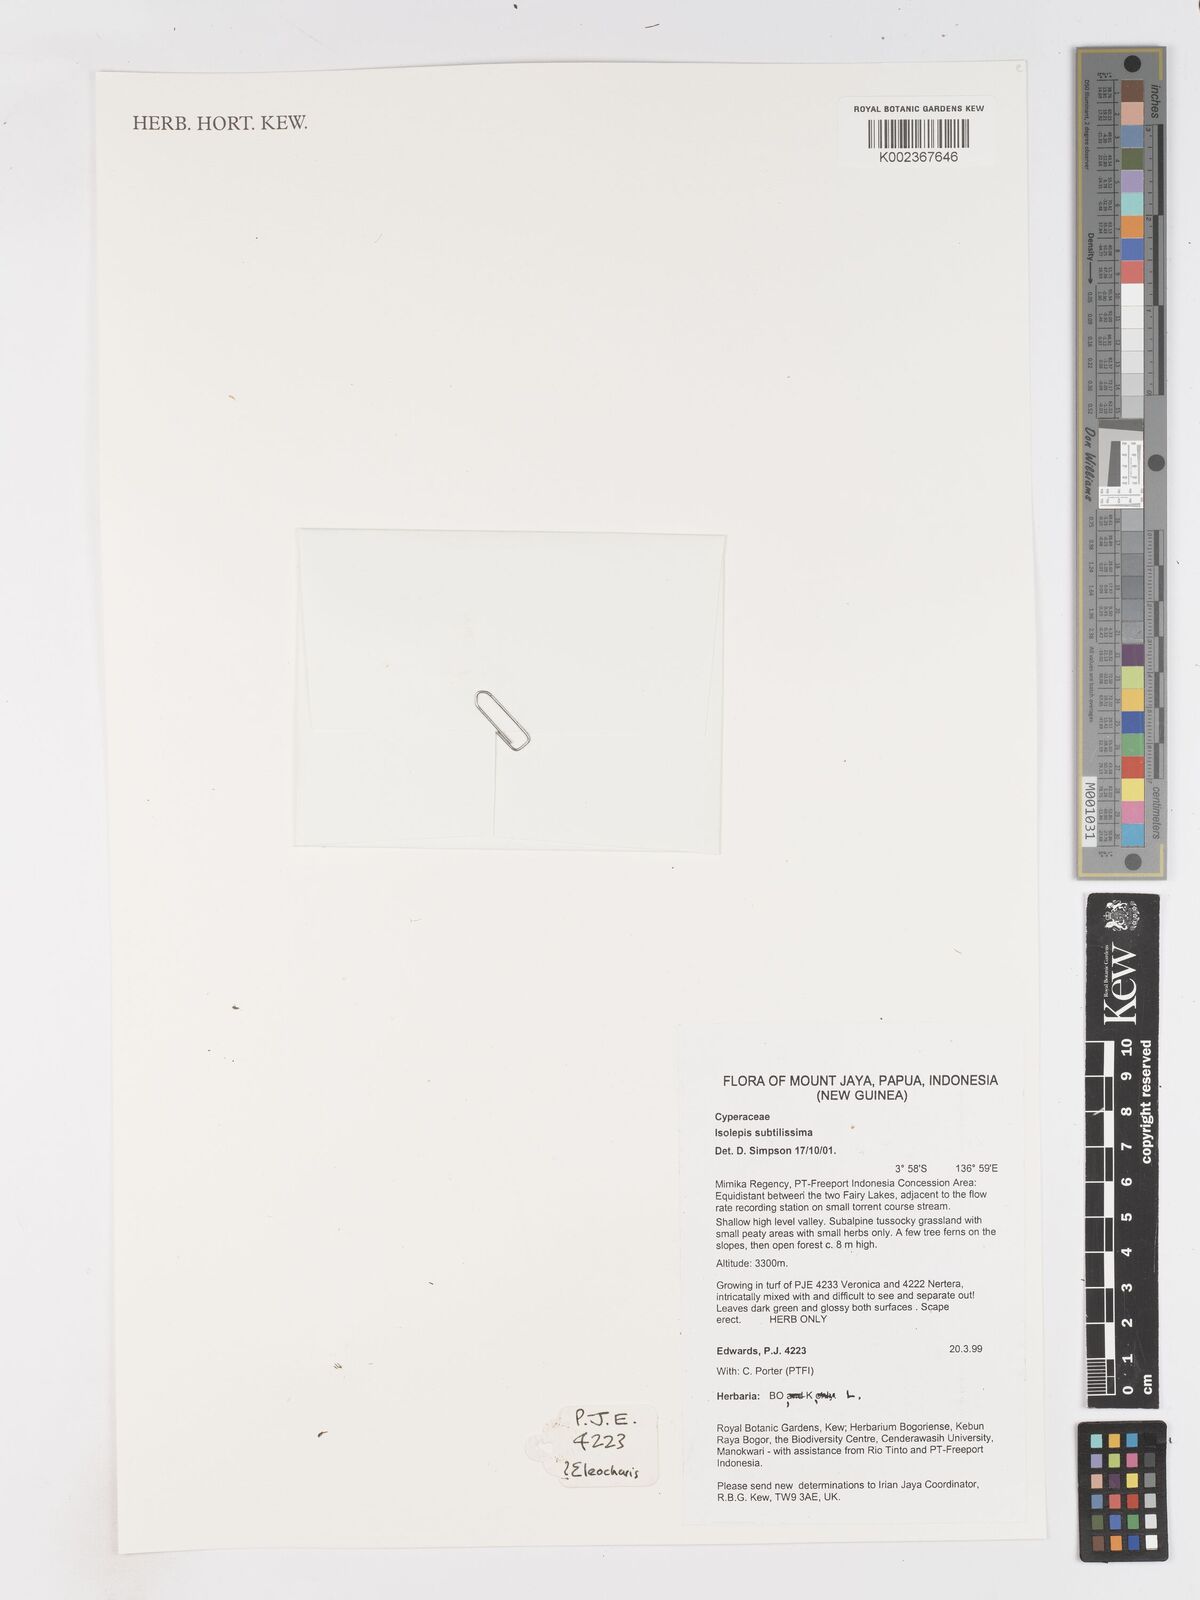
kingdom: Plantae
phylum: Tracheophyta
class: Liliopsida
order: Poales
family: Cyperaceae
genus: Isolepis
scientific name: Isolepis subtilissima
